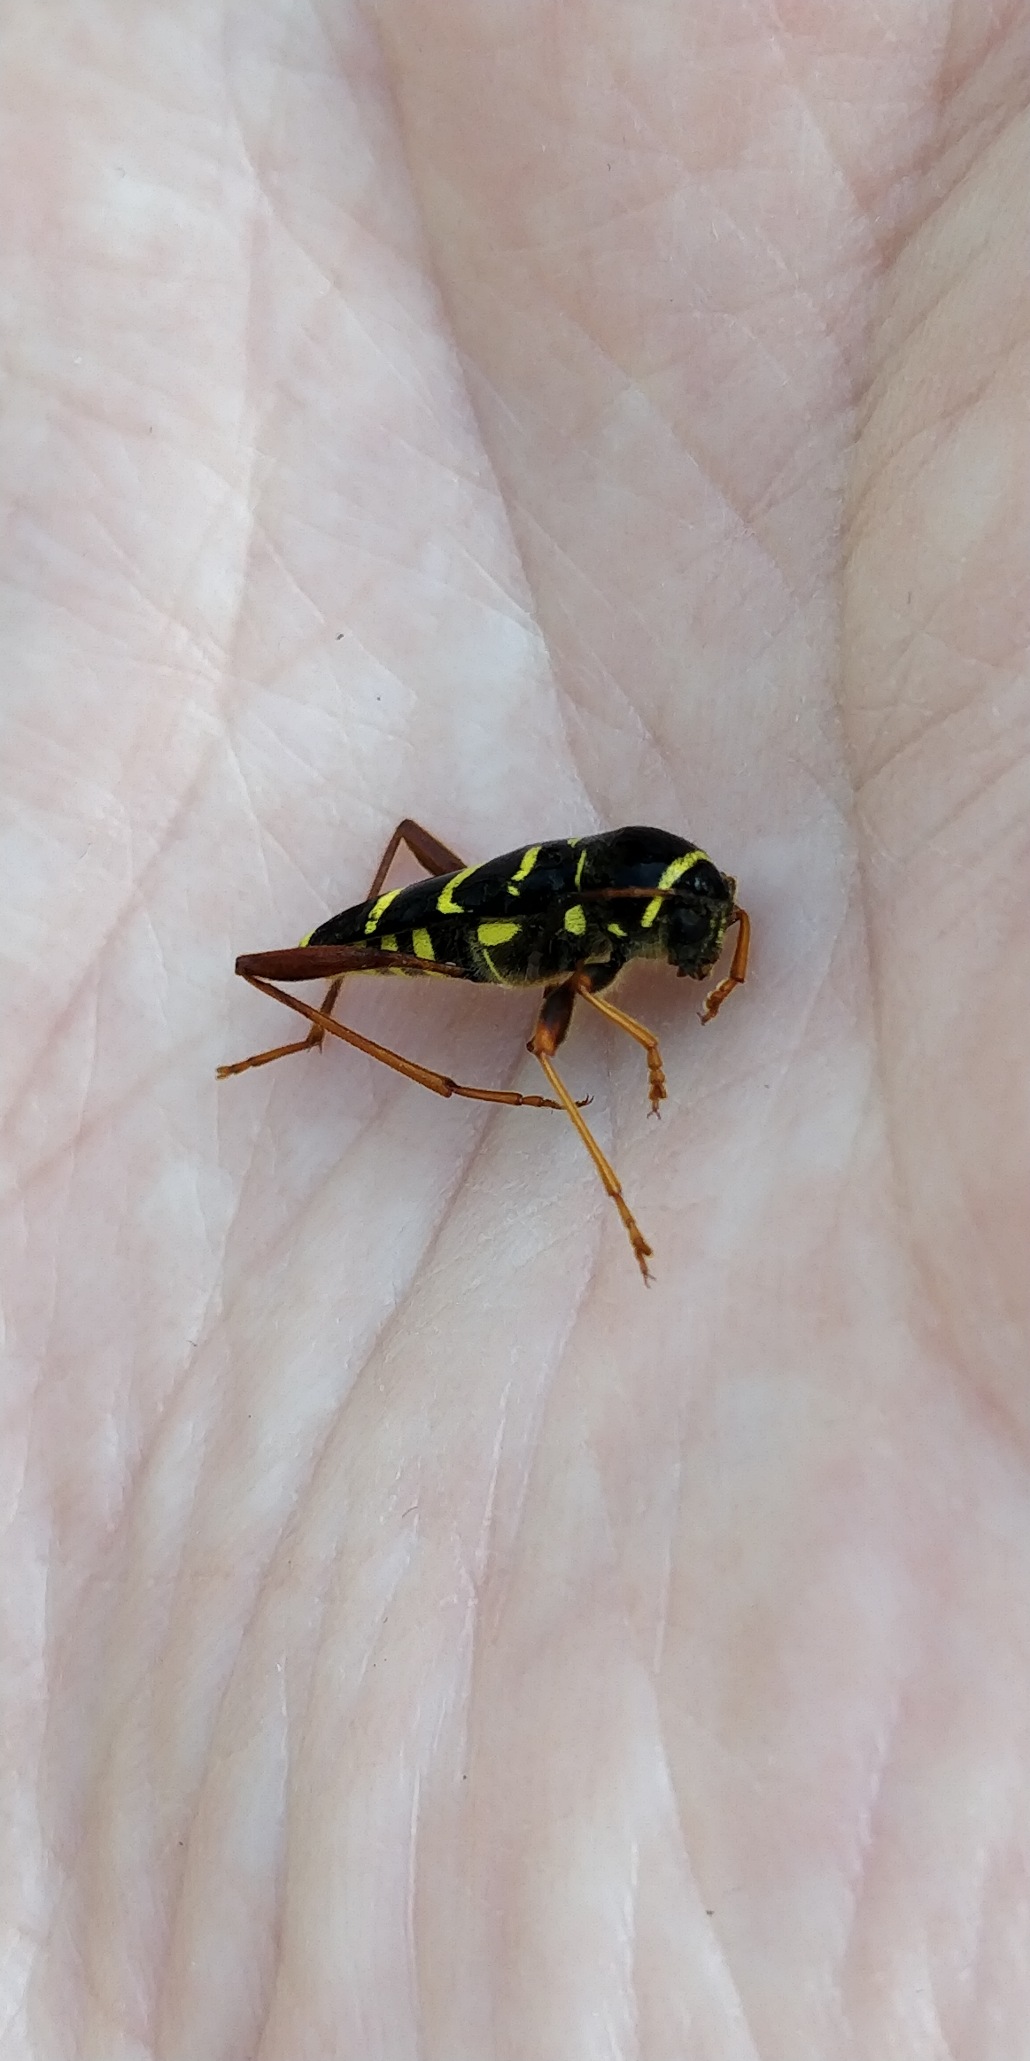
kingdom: Animalia
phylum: Arthropoda
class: Insecta
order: Coleoptera
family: Cerambycidae
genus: Clytus
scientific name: Clytus arietis
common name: Lille hvepsebuk
